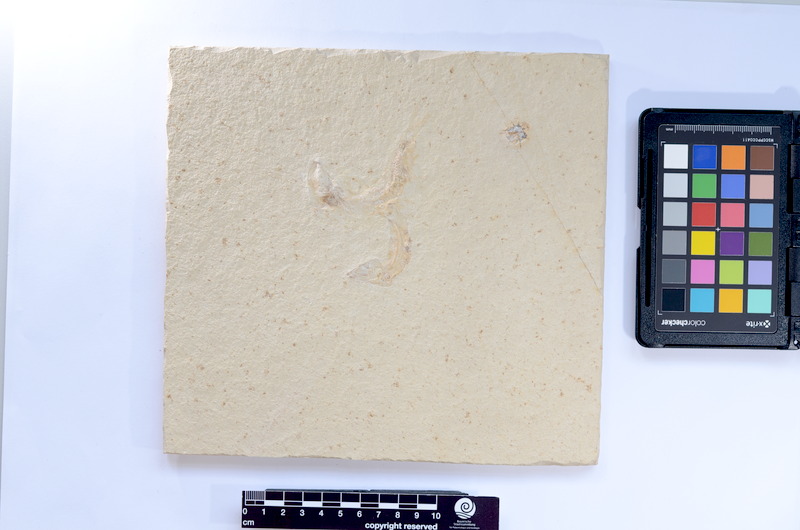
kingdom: Animalia
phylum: Chordata
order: Salmoniformes
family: Orthogonikleithridae
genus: Leptolepides
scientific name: Leptolepides sprattiformis
